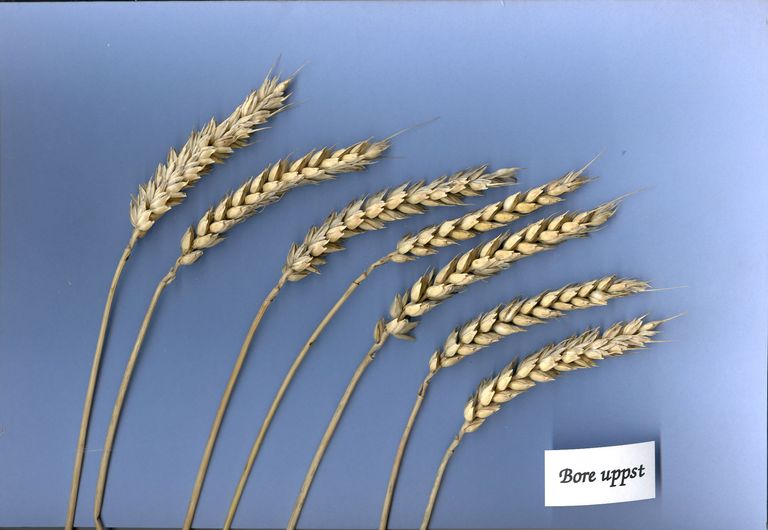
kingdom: Plantae
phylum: Tracheophyta
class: Liliopsida
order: Poales
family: Poaceae
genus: Triticum
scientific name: Triticum aestivum
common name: Common wheat
